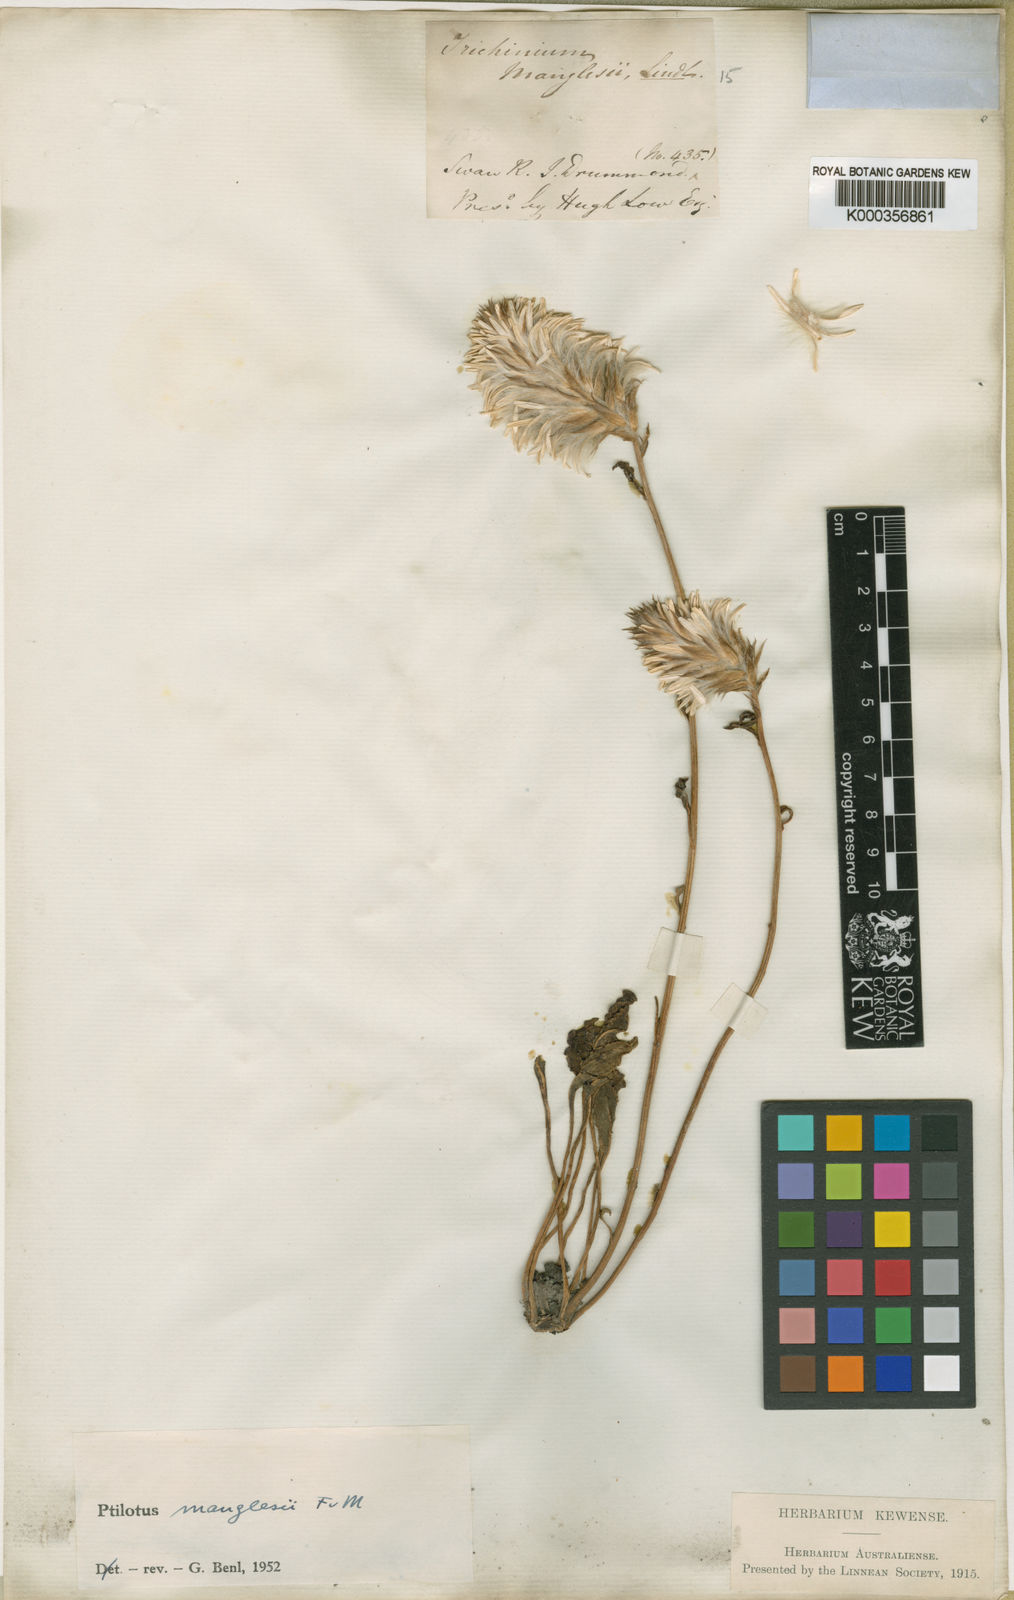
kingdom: Plantae
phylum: Tracheophyta
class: Magnoliopsida
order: Caryophyllales
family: Amaranthaceae
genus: Ptilotus
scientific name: Ptilotus manglesii
